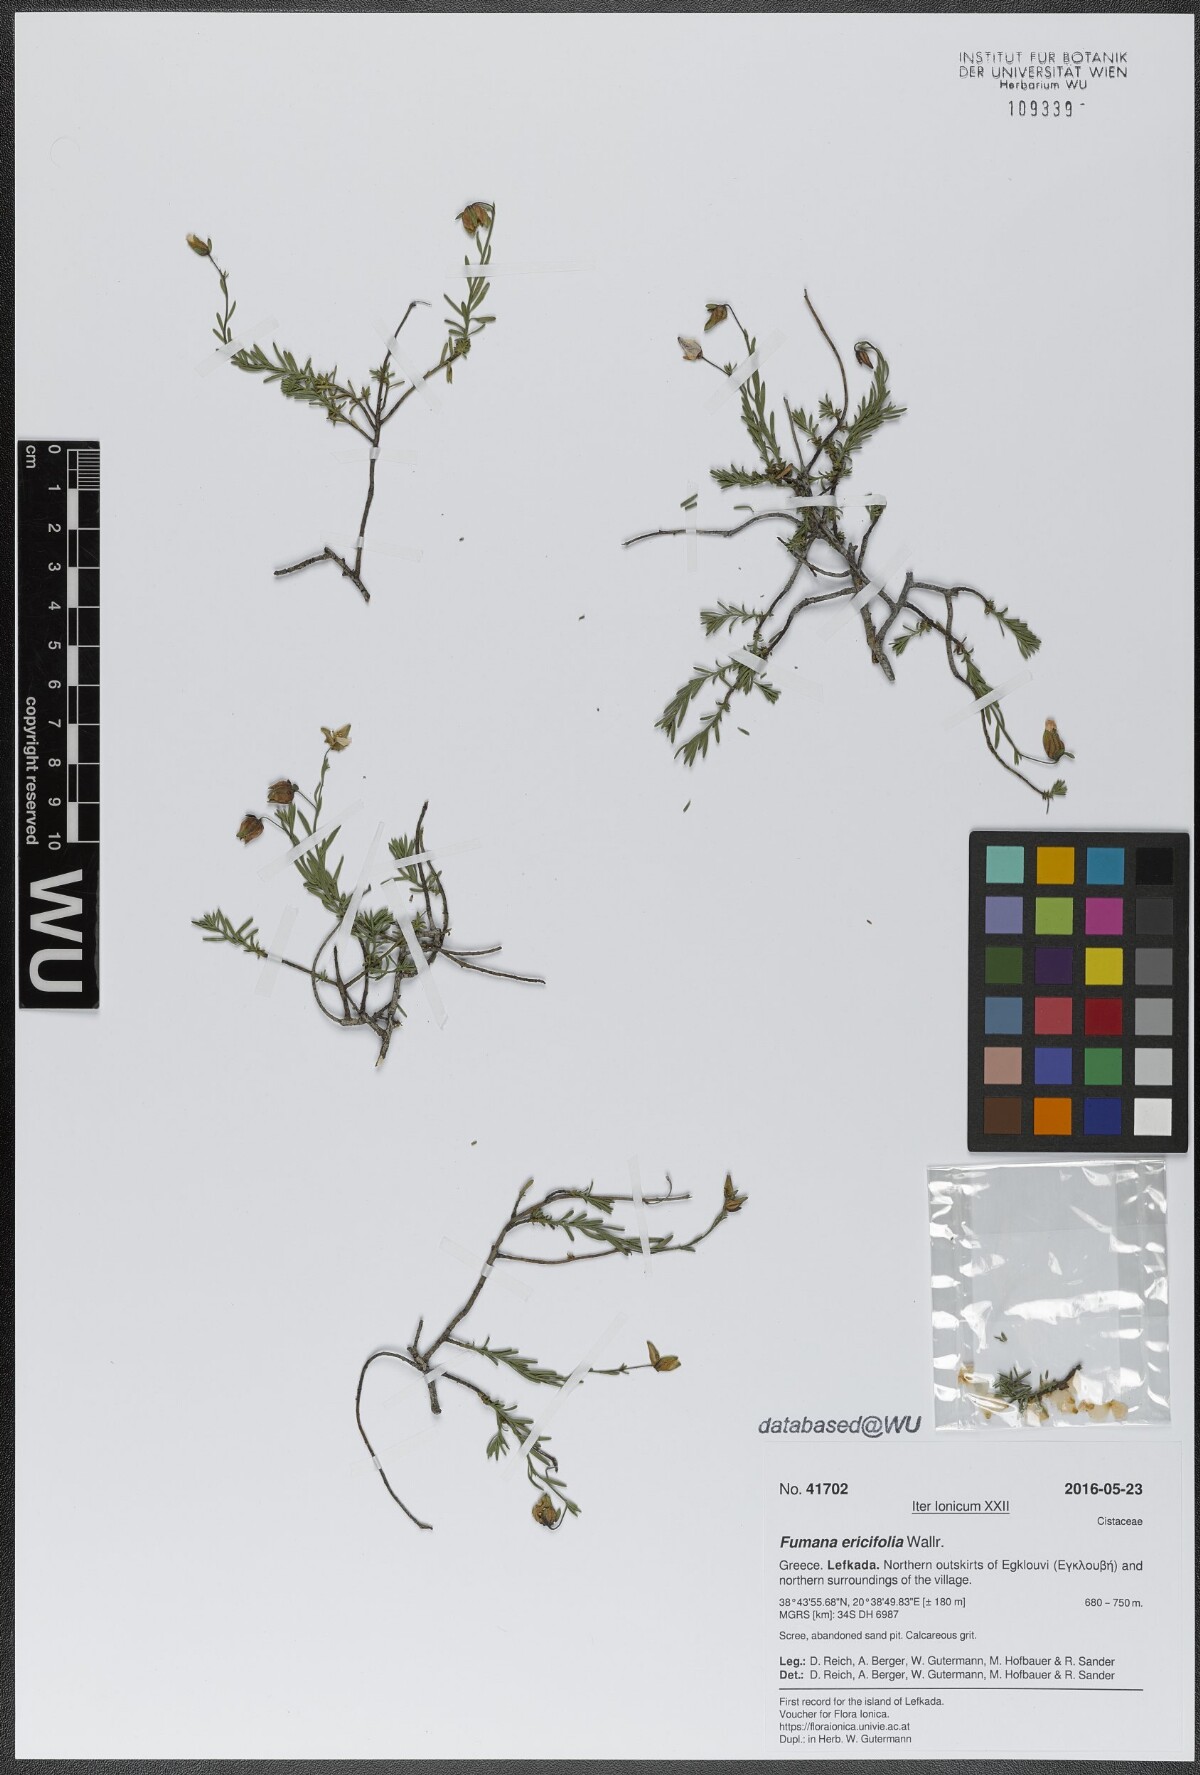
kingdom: Plantae
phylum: Tracheophyta
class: Magnoliopsida
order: Malvales
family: Cistaceae
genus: Fumana
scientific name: Fumana ericifolia
